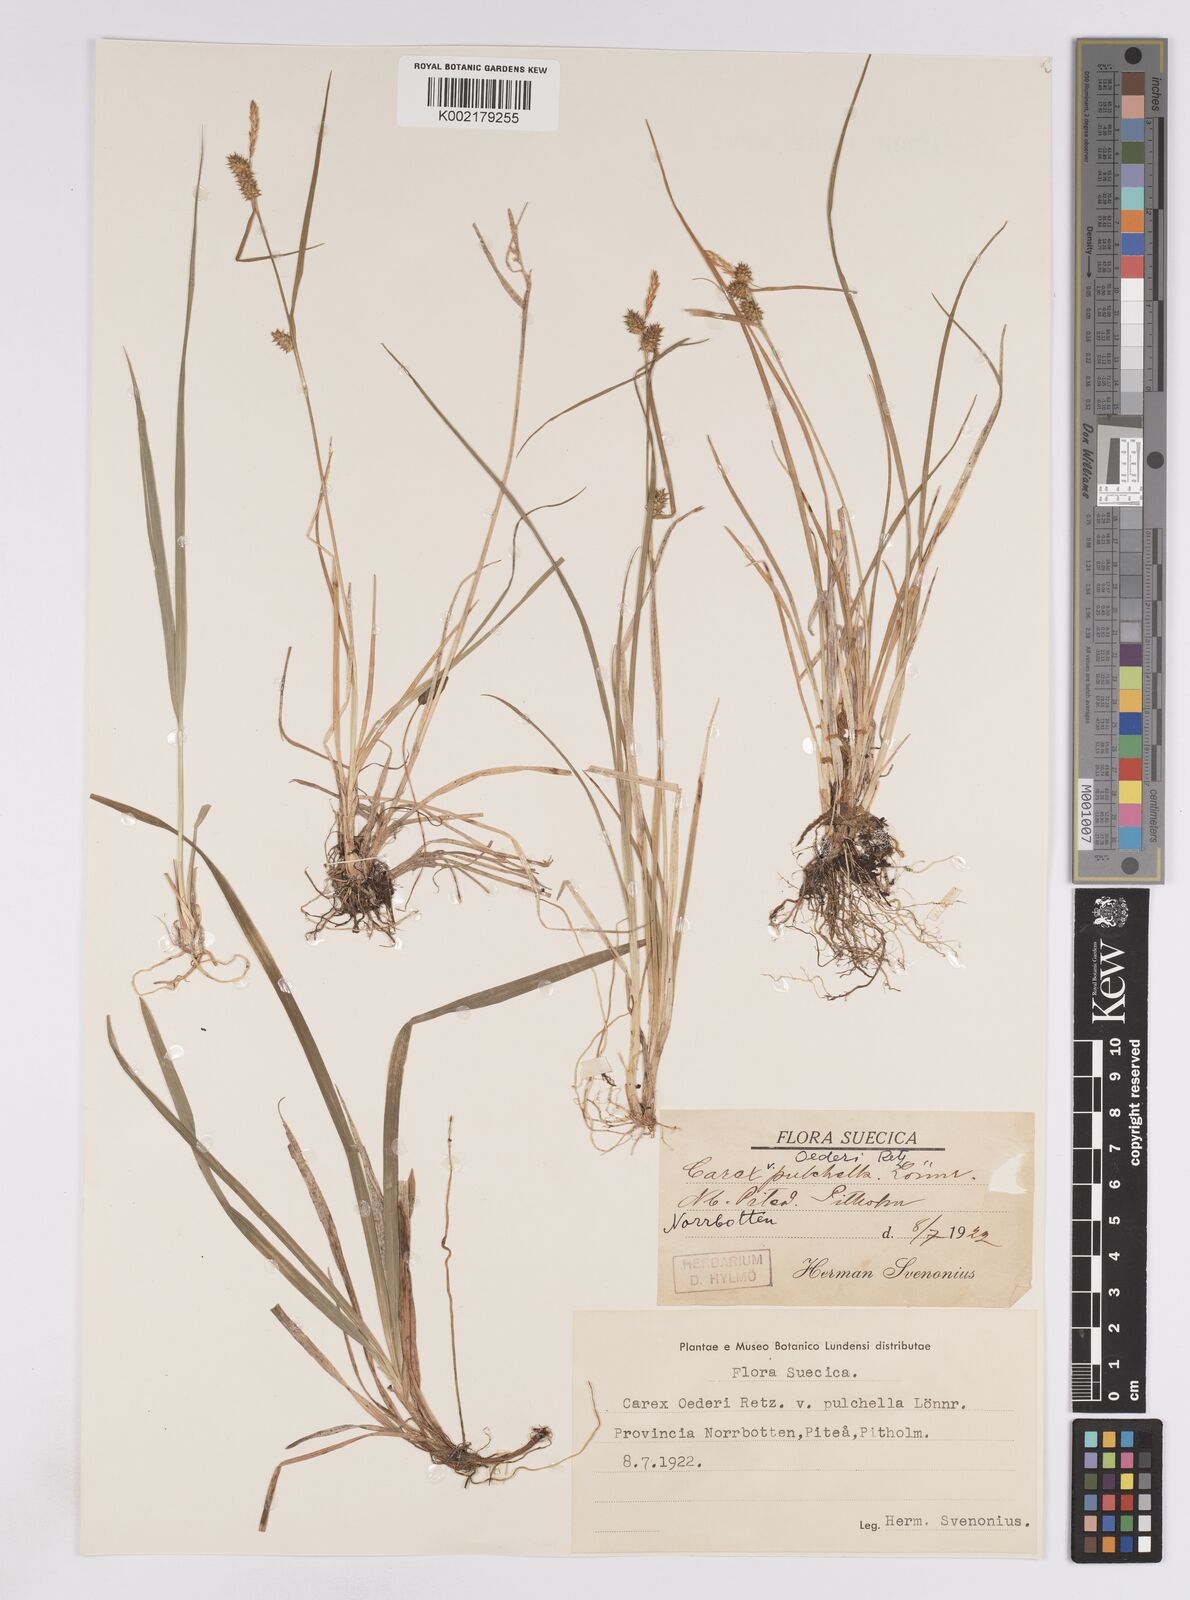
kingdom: Plantae
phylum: Tracheophyta
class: Liliopsida
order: Poales
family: Cyperaceae
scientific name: Cyperaceae
